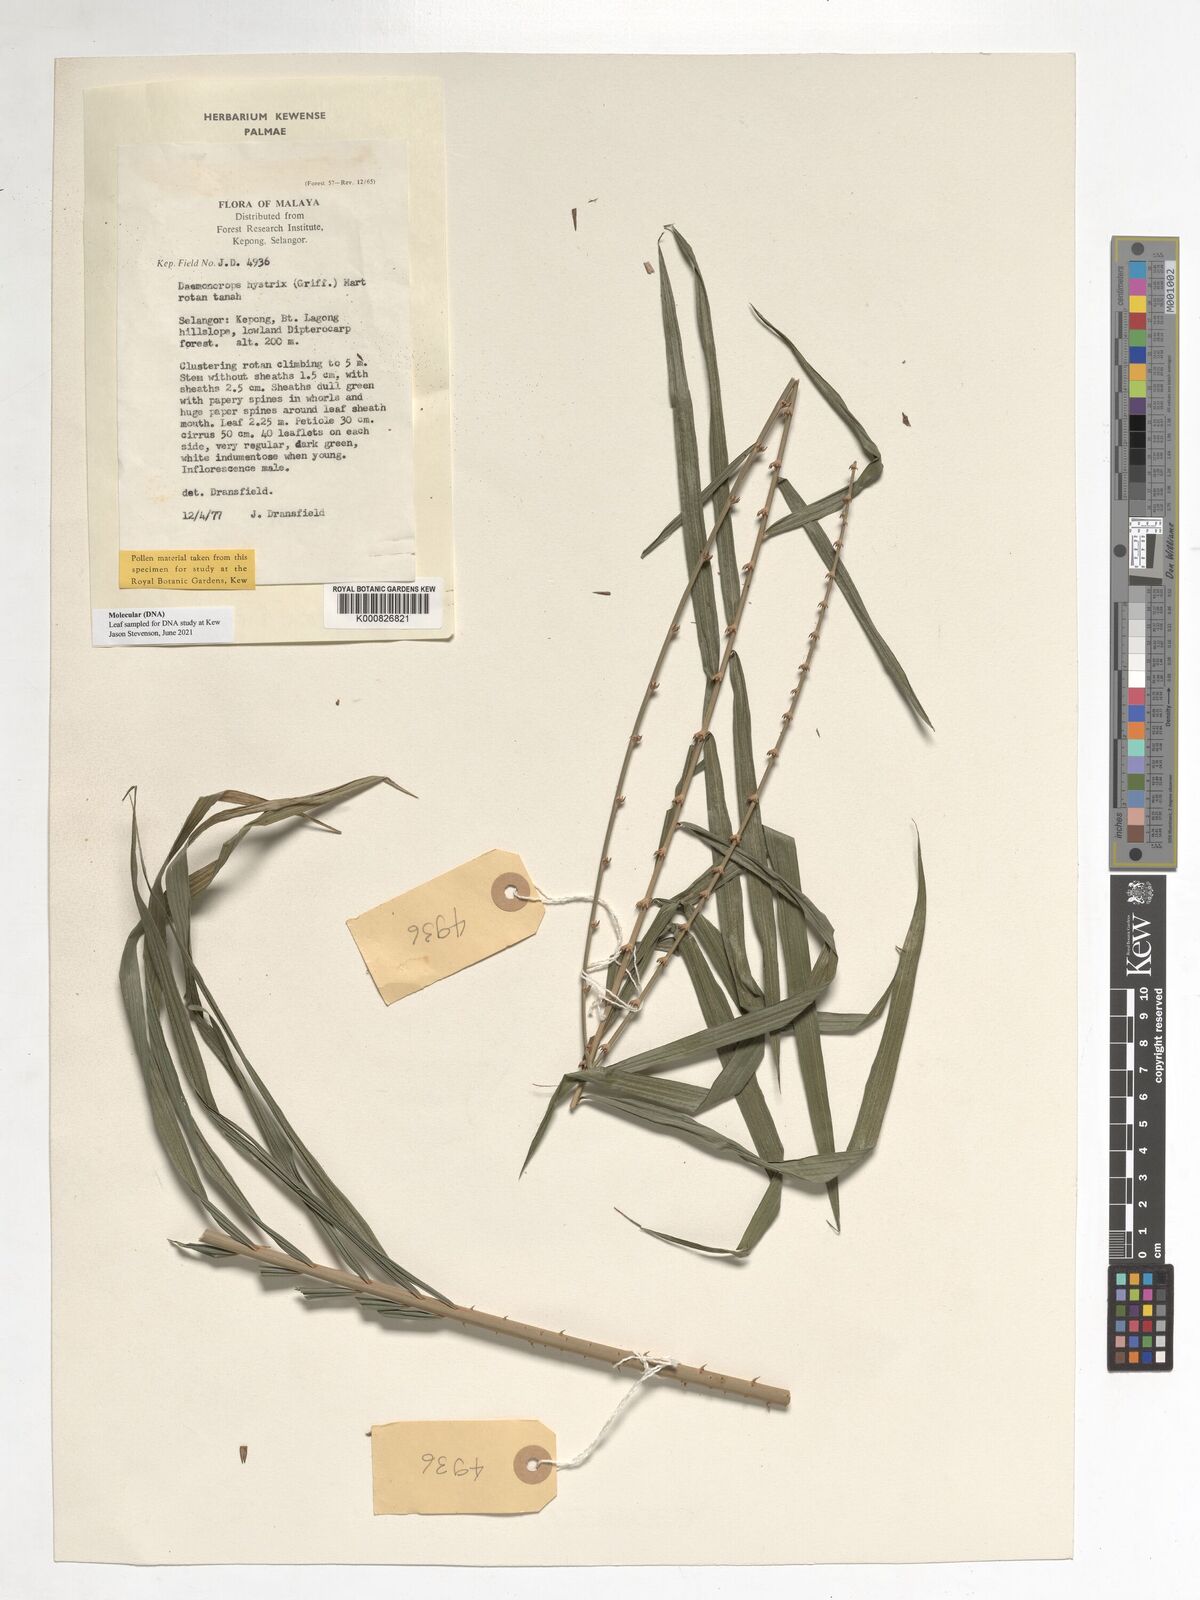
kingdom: Plantae
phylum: Tracheophyta
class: Liliopsida
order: Arecales
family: Arecaceae
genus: Calamus
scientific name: Calamus hirsutus
